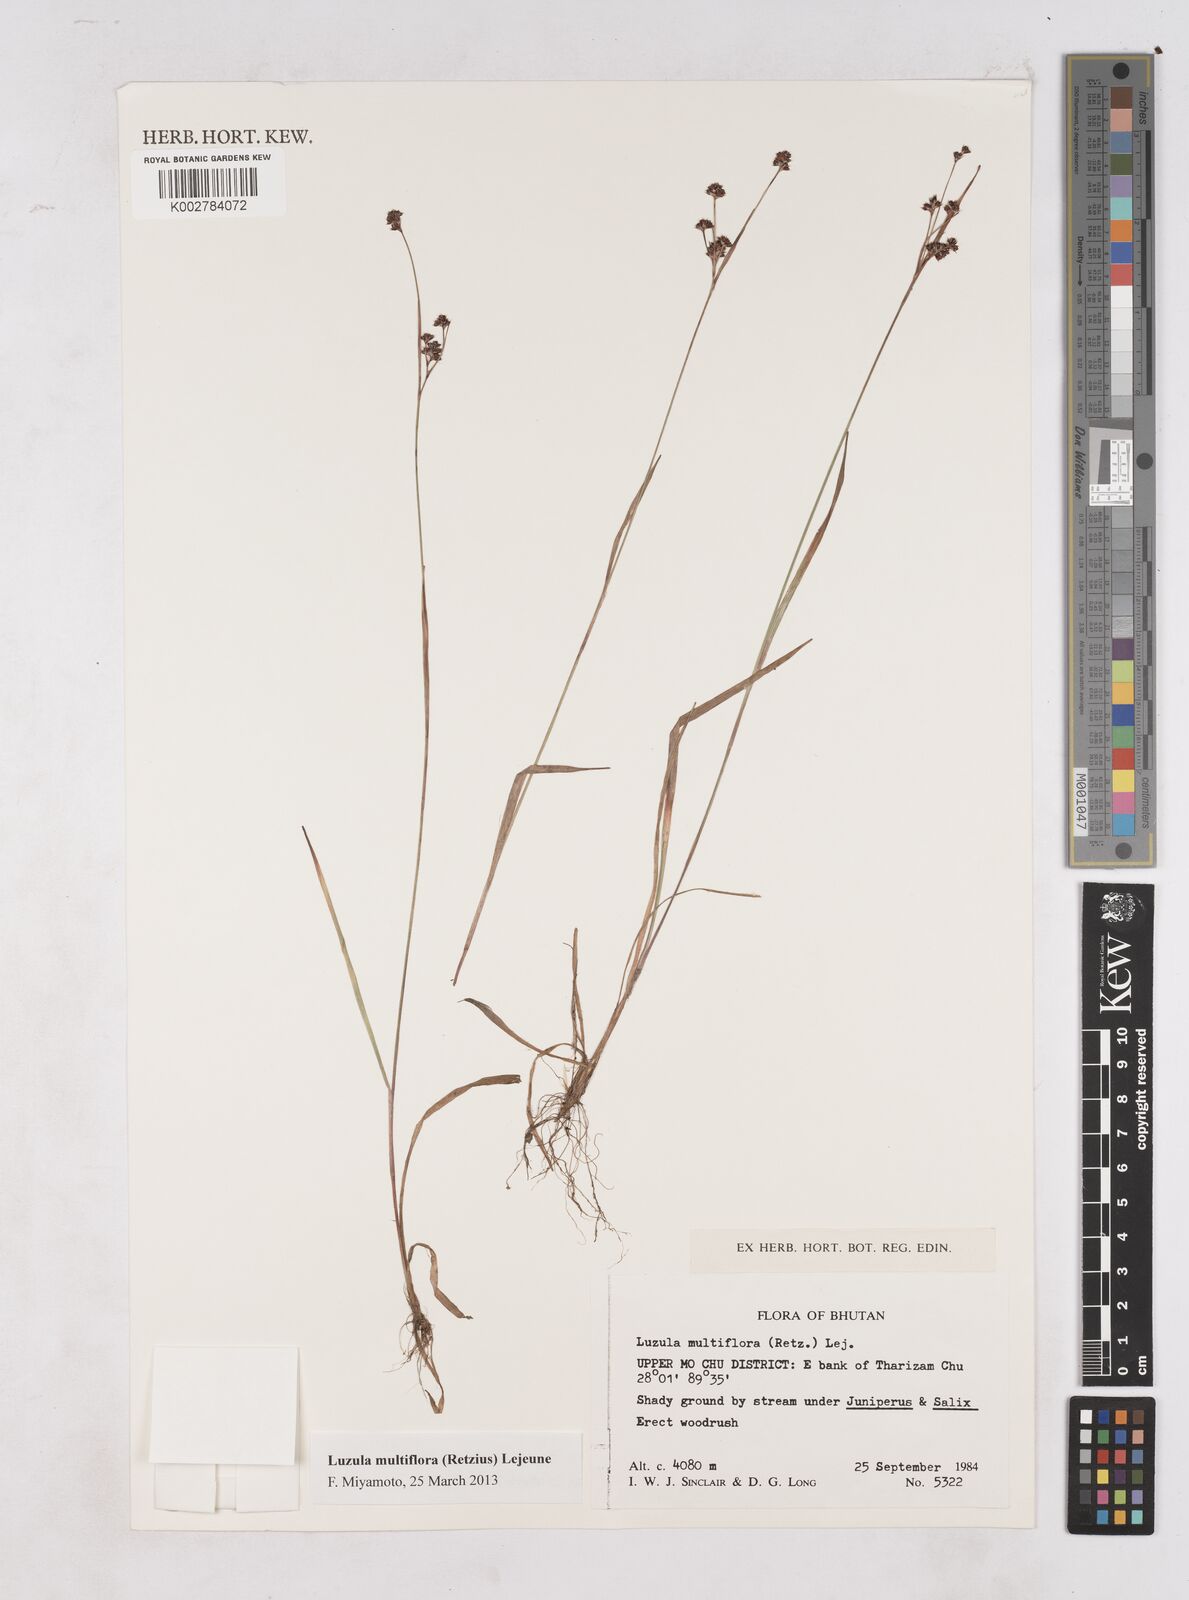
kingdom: Plantae
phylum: Tracheophyta
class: Liliopsida
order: Poales
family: Juncaceae
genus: Luzula
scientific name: Luzula campestris
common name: Field wood-rush
